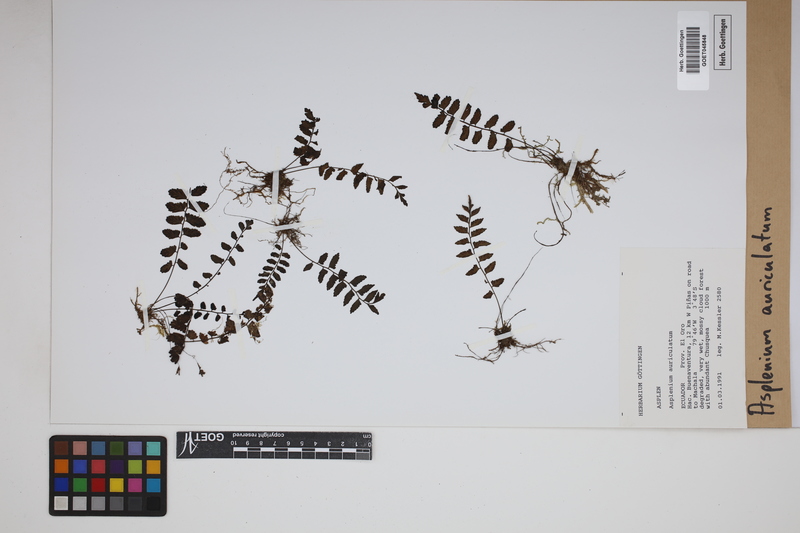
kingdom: Plantae
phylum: Tracheophyta
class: Polypodiopsida
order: Polypodiales
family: Aspleniaceae
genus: Asplenium
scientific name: Asplenium auriculatum
